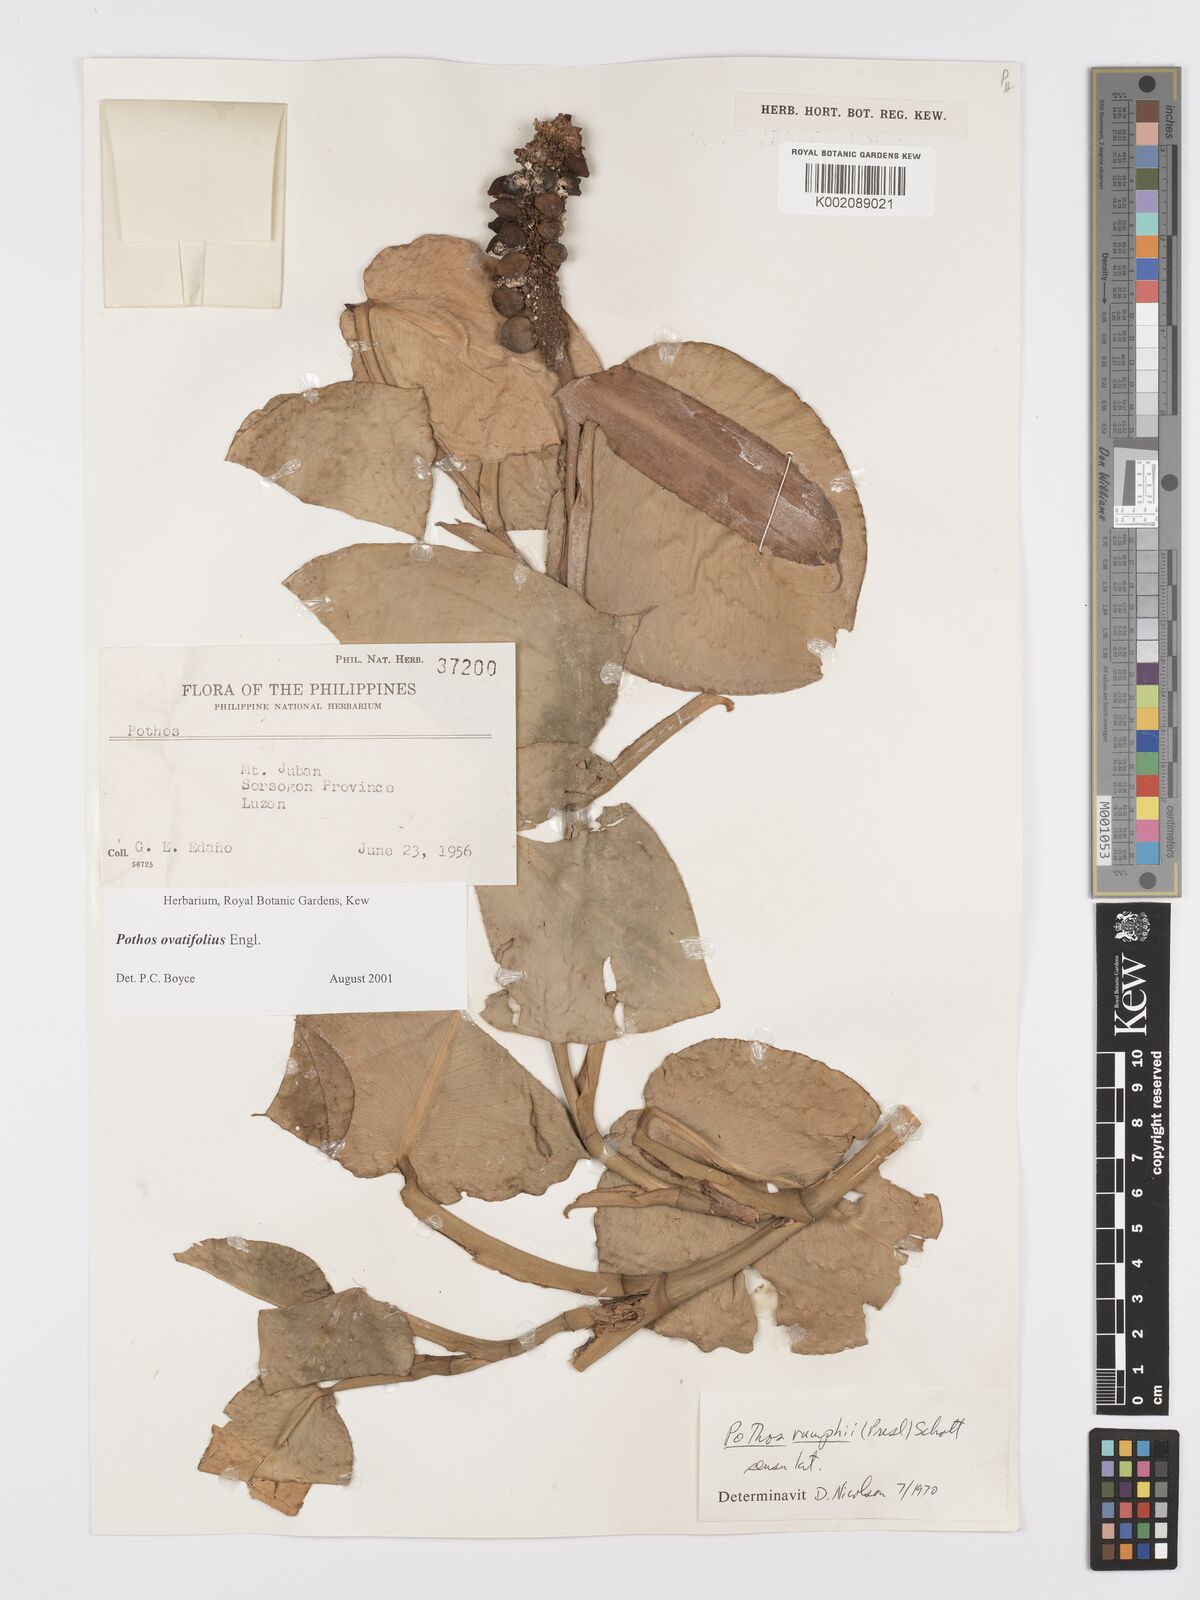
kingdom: Plantae
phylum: Tracheophyta
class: Liliopsida
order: Alismatales
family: Araceae
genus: Pothos
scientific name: Pothos ovatifolius
